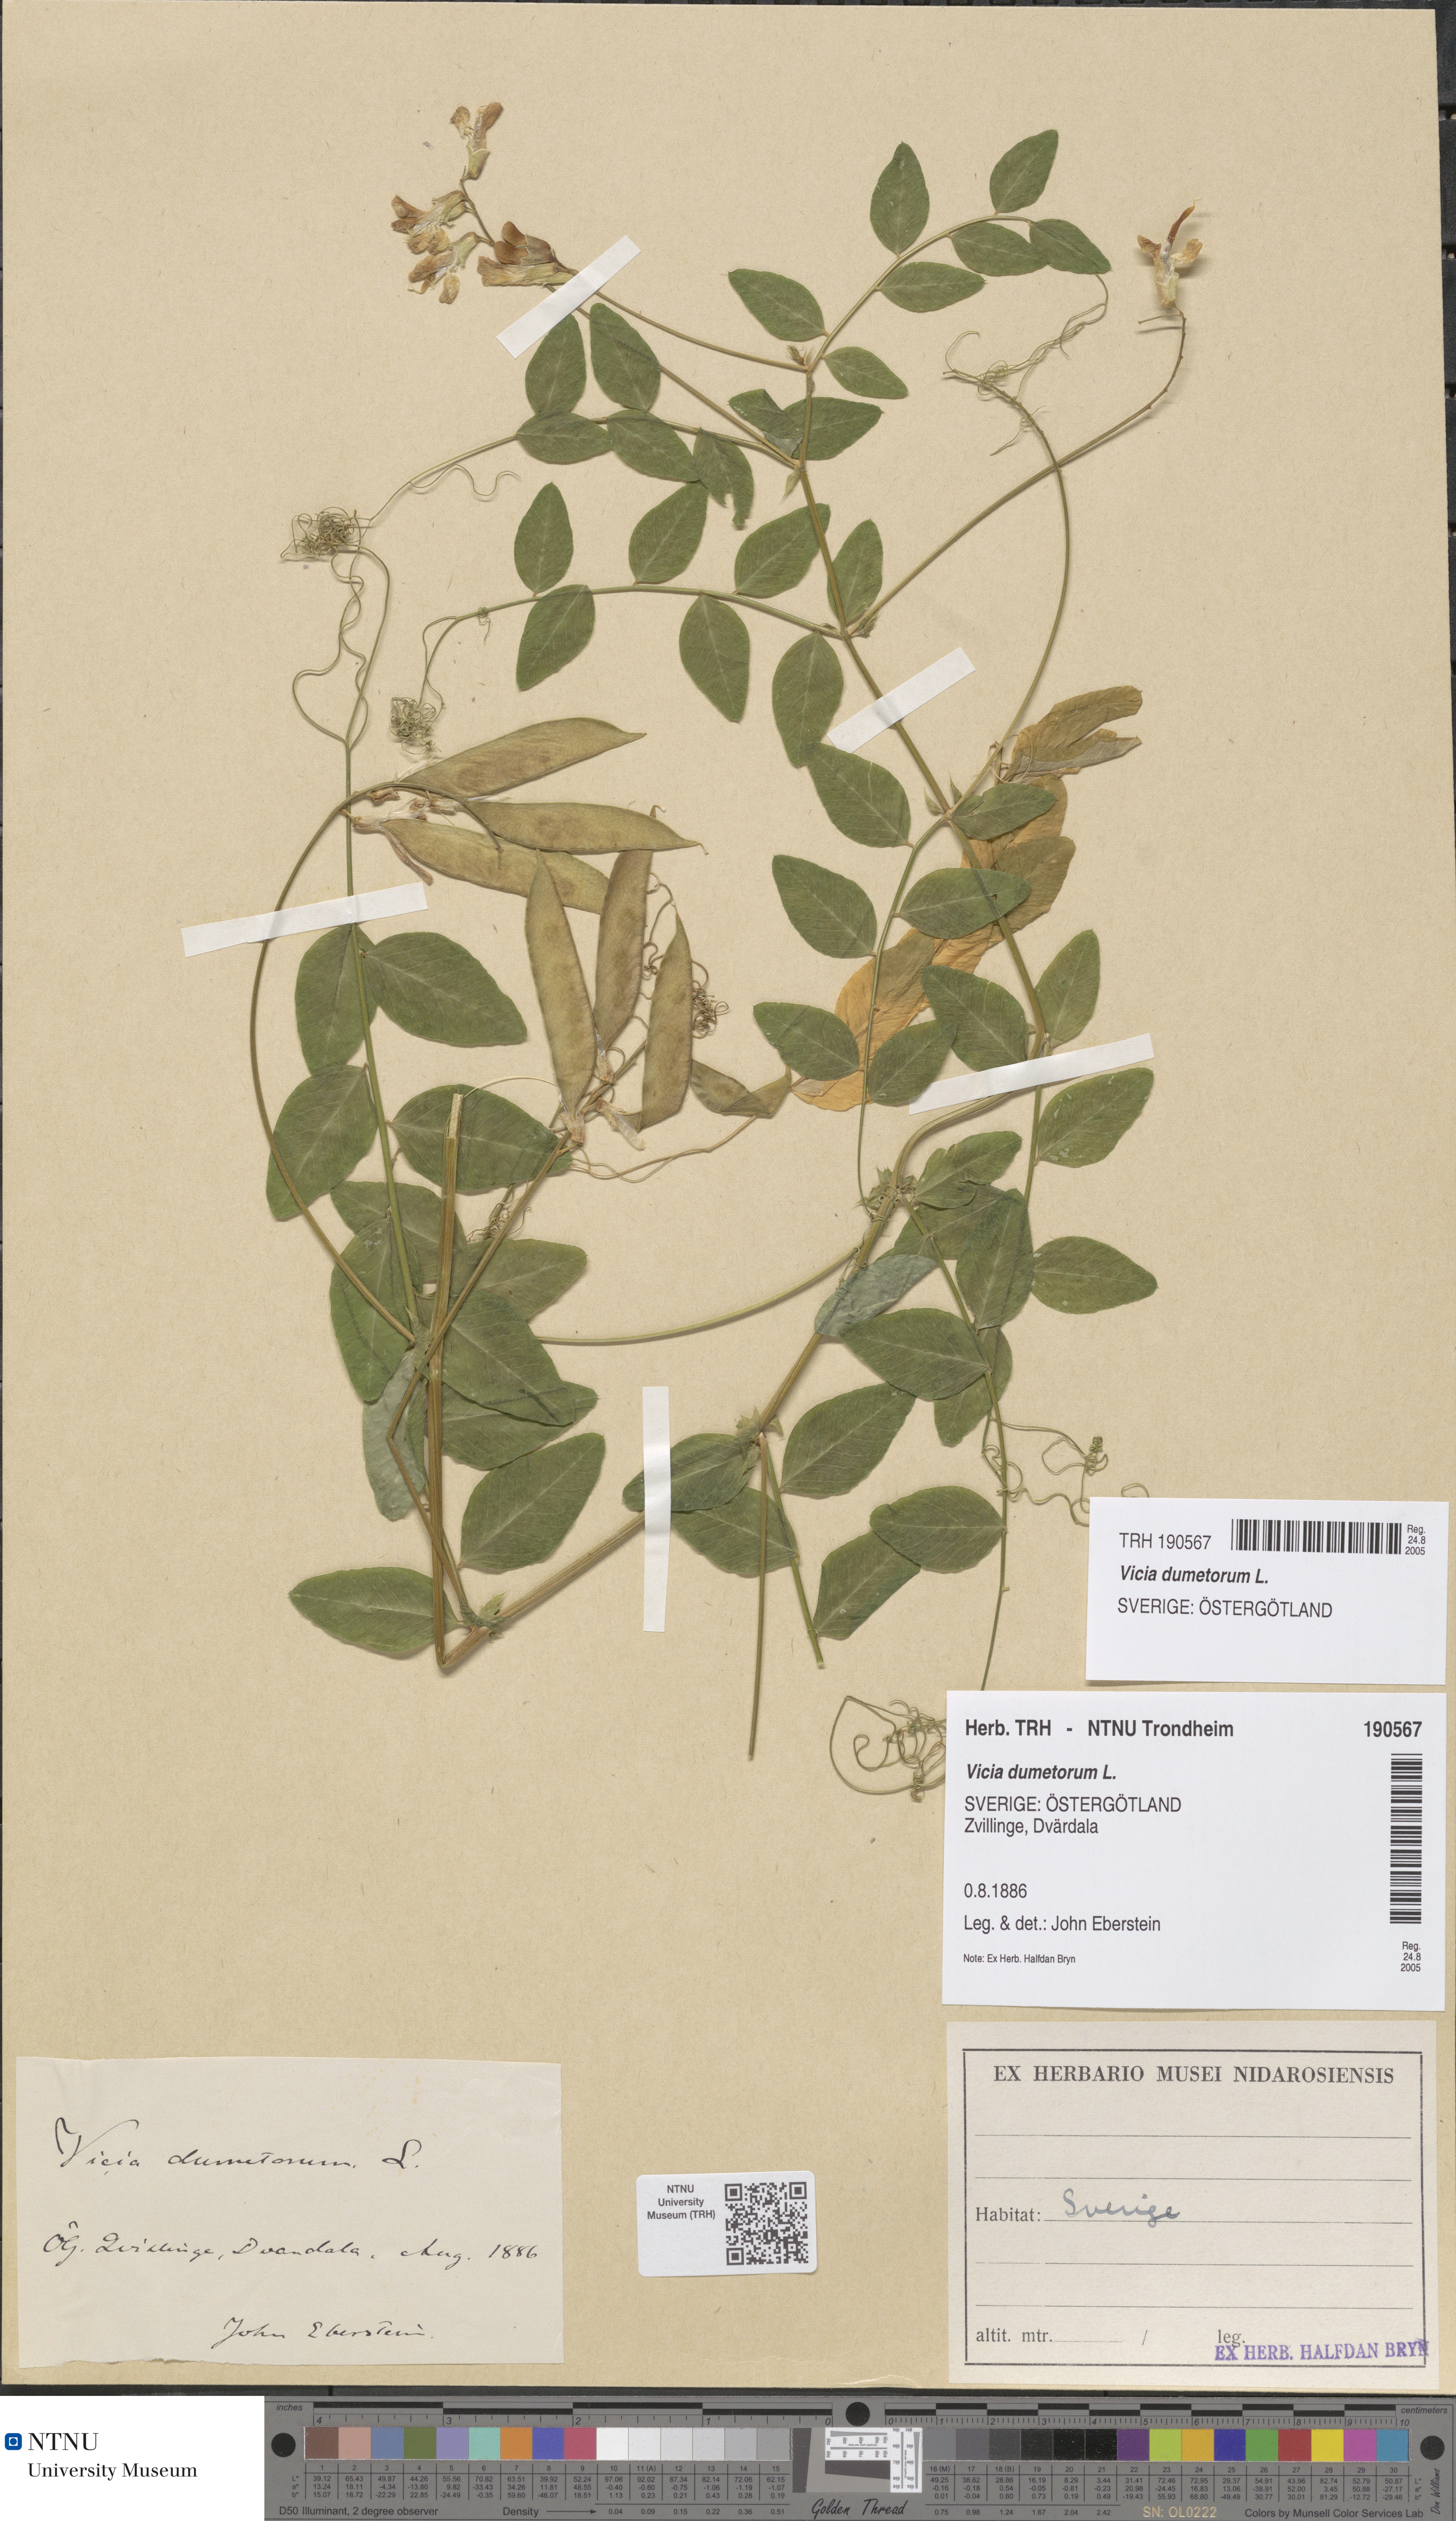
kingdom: Plantae
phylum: Tracheophyta
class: Magnoliopsida
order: Fabales
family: Fabaceae
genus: Vicia
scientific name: Vicia dumetorum
